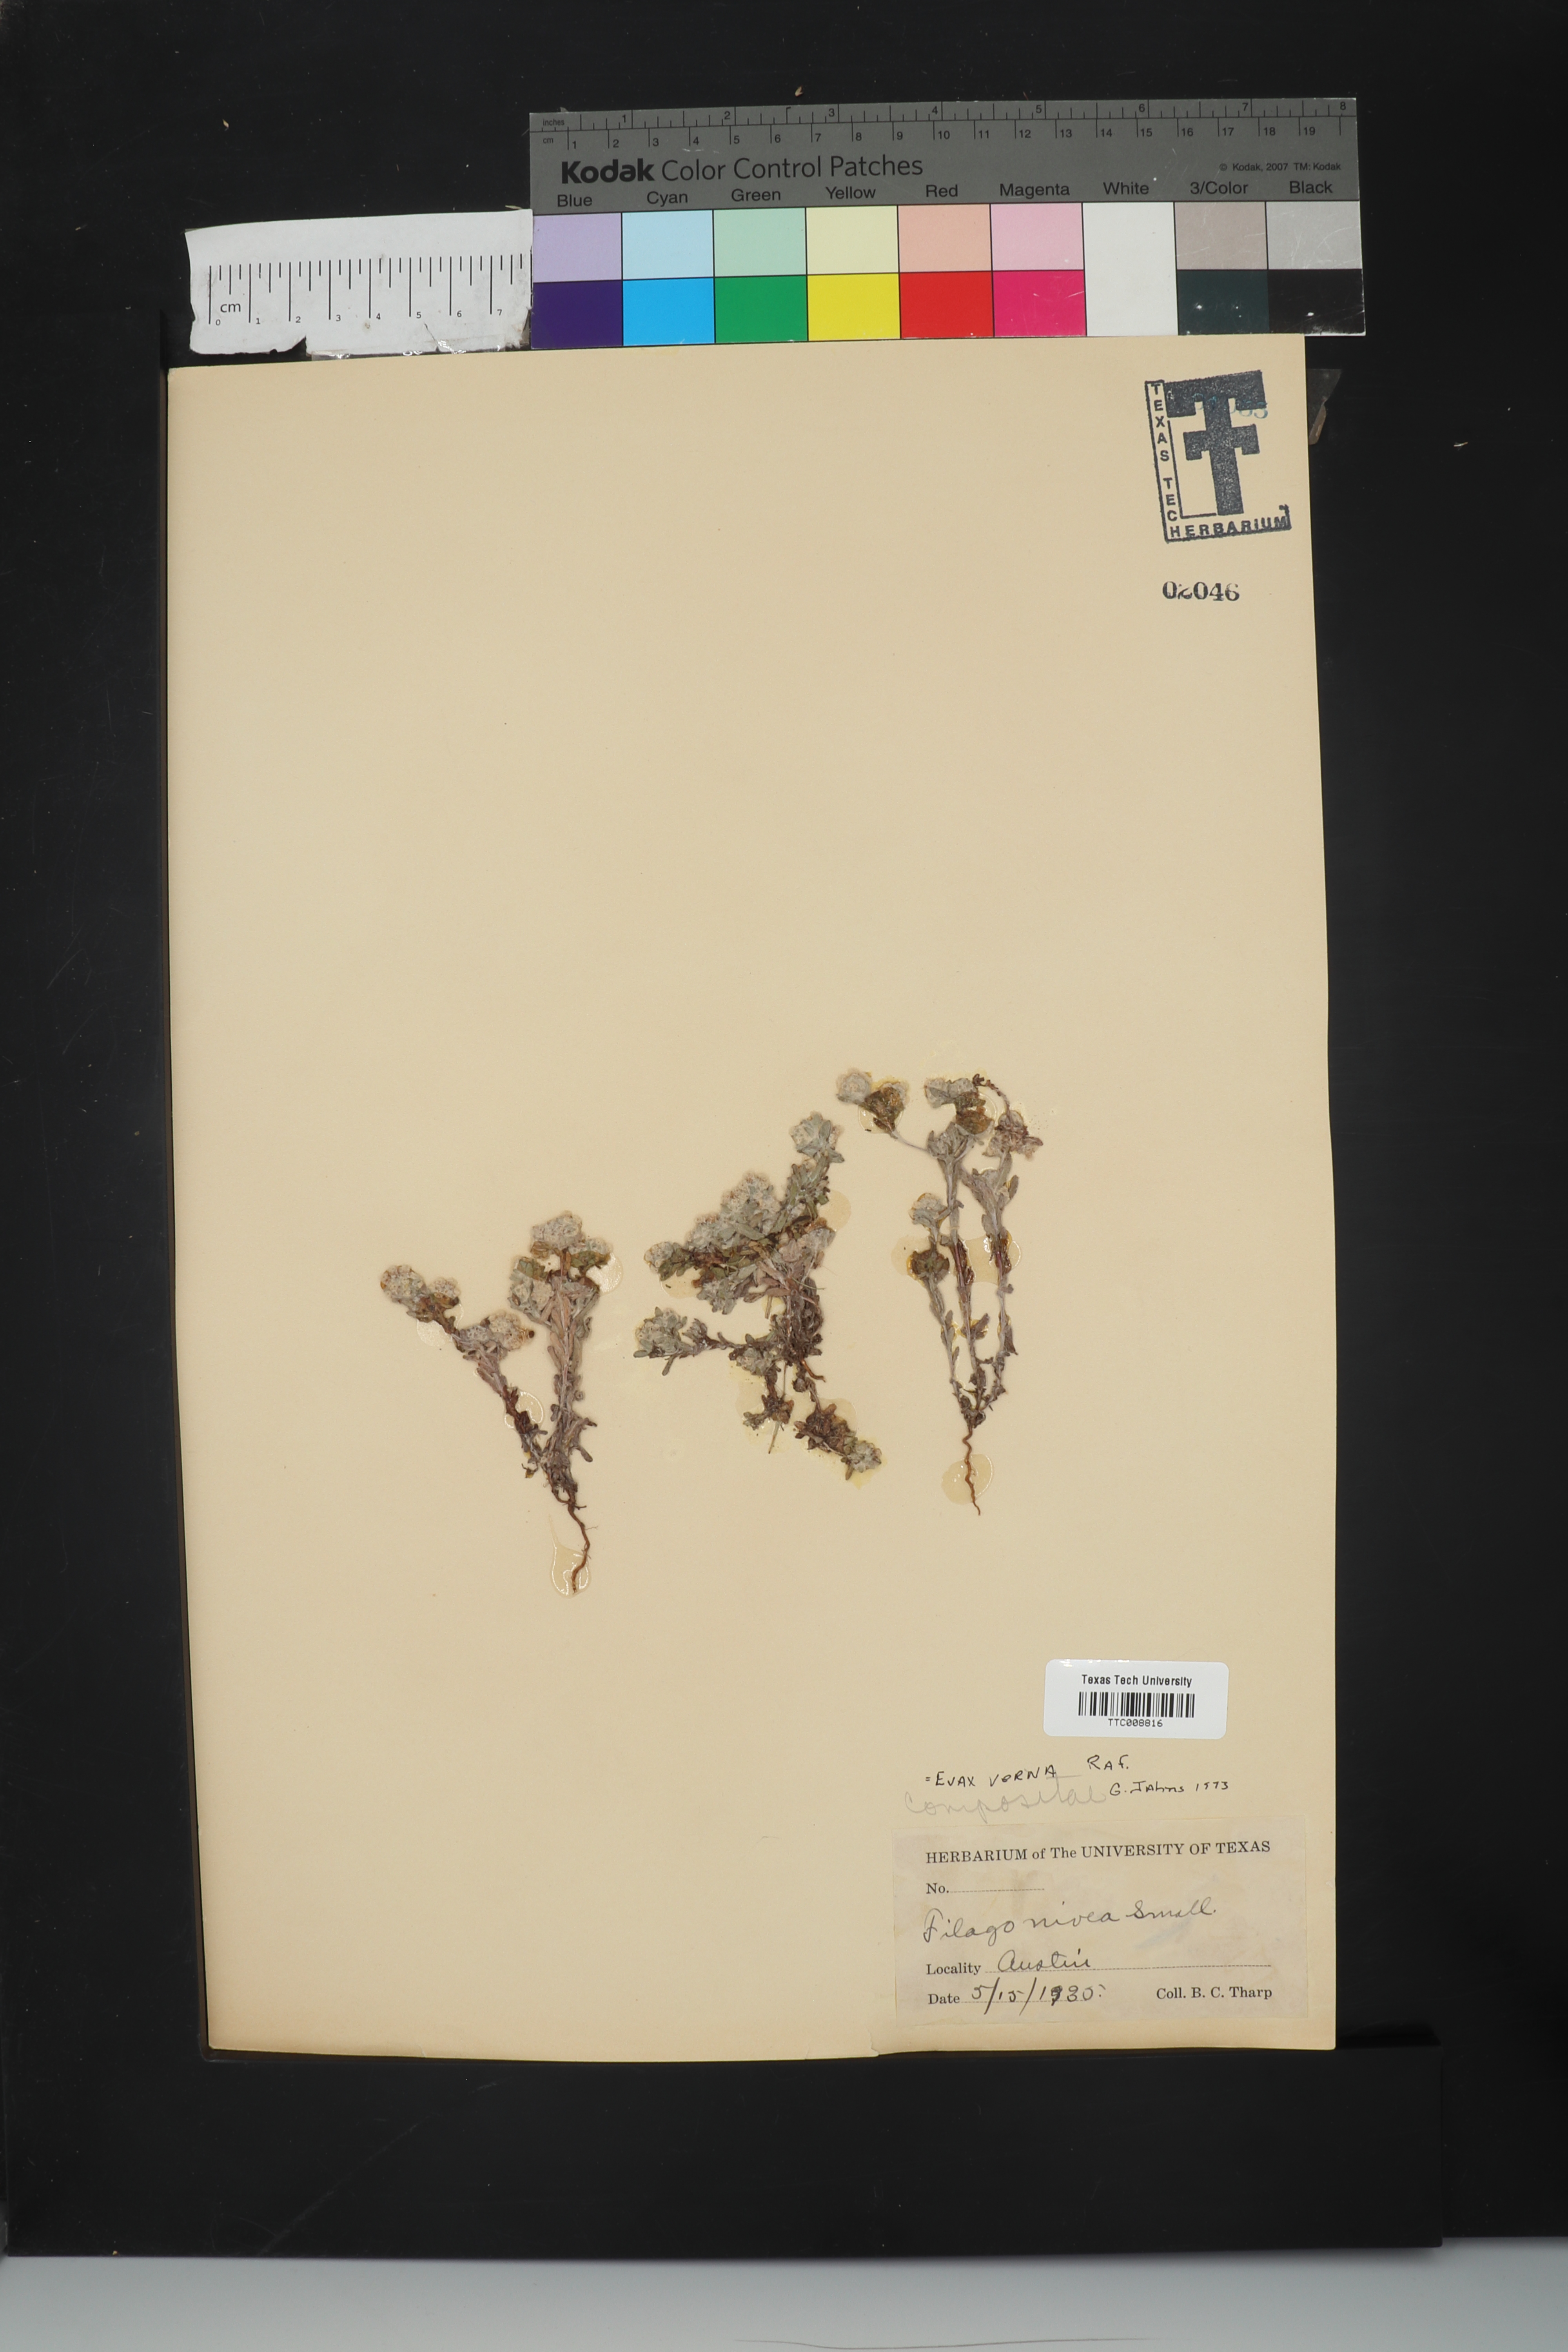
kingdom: Plantae
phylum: Tracheophyta
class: Magnoliopsida
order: Asterales
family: Asteraceae
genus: Diaperia
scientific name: Diaperia verna
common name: Many-stem rabbit-tobacco
